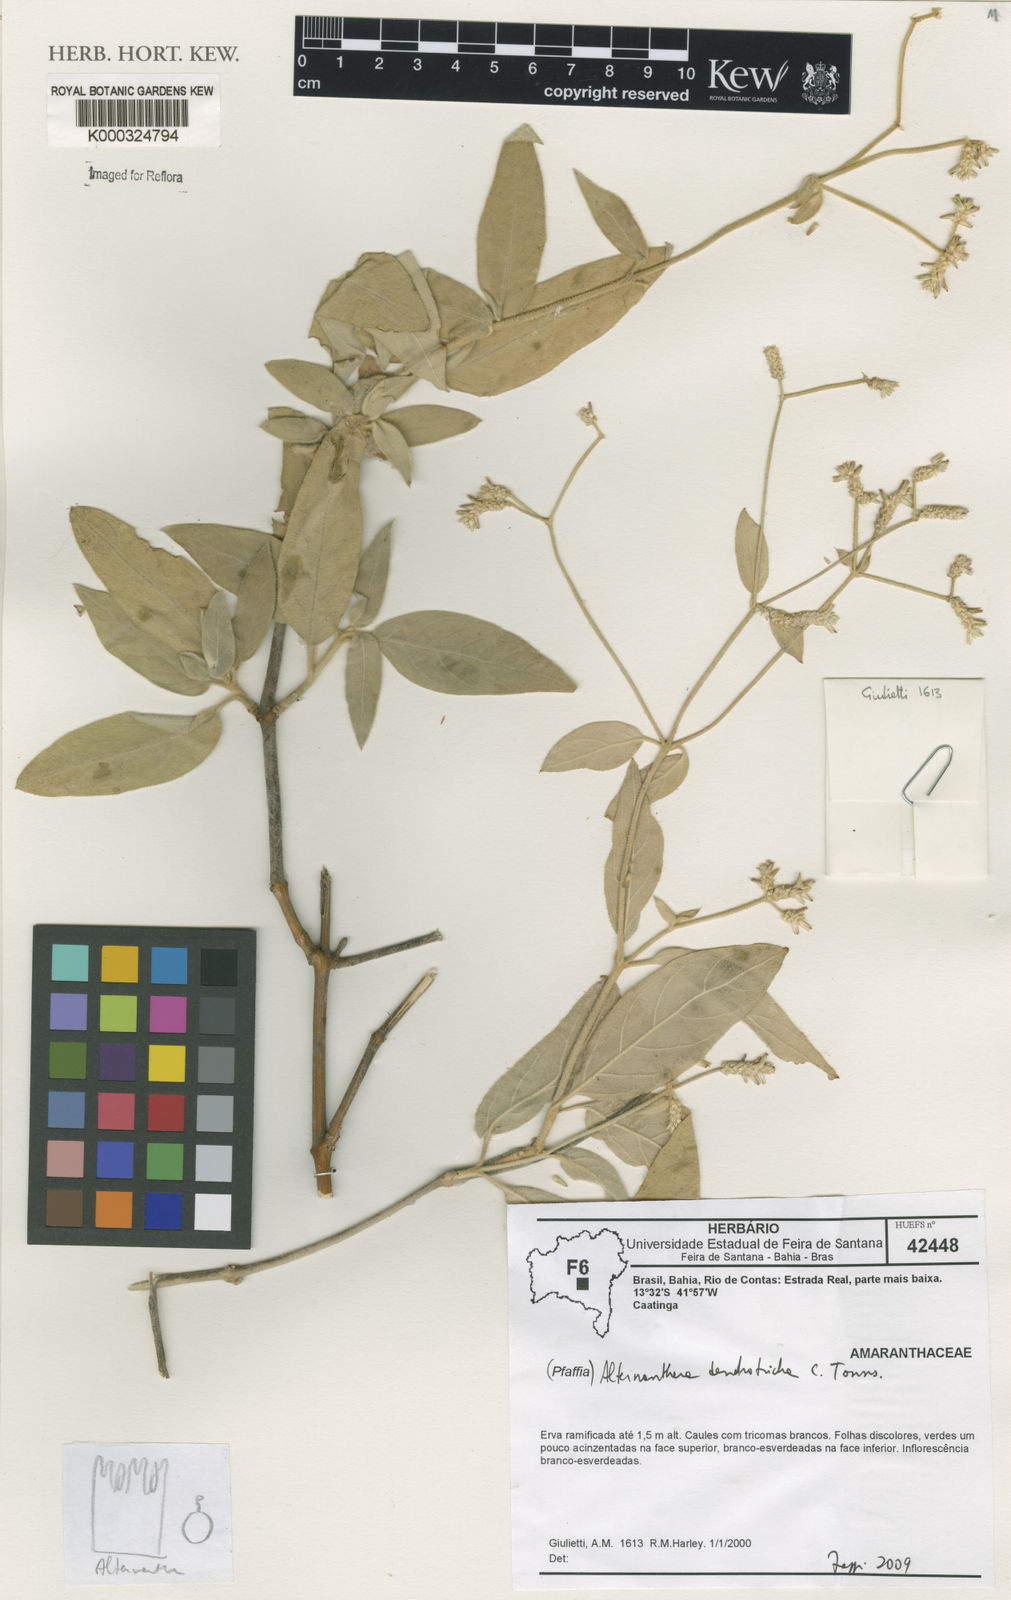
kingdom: Plantae
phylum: Tracheophyta
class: Magnoliopsida
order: Caryophyllales
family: Amaranthaceae
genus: Alternanthera
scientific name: Alternanthera dendrotricha
